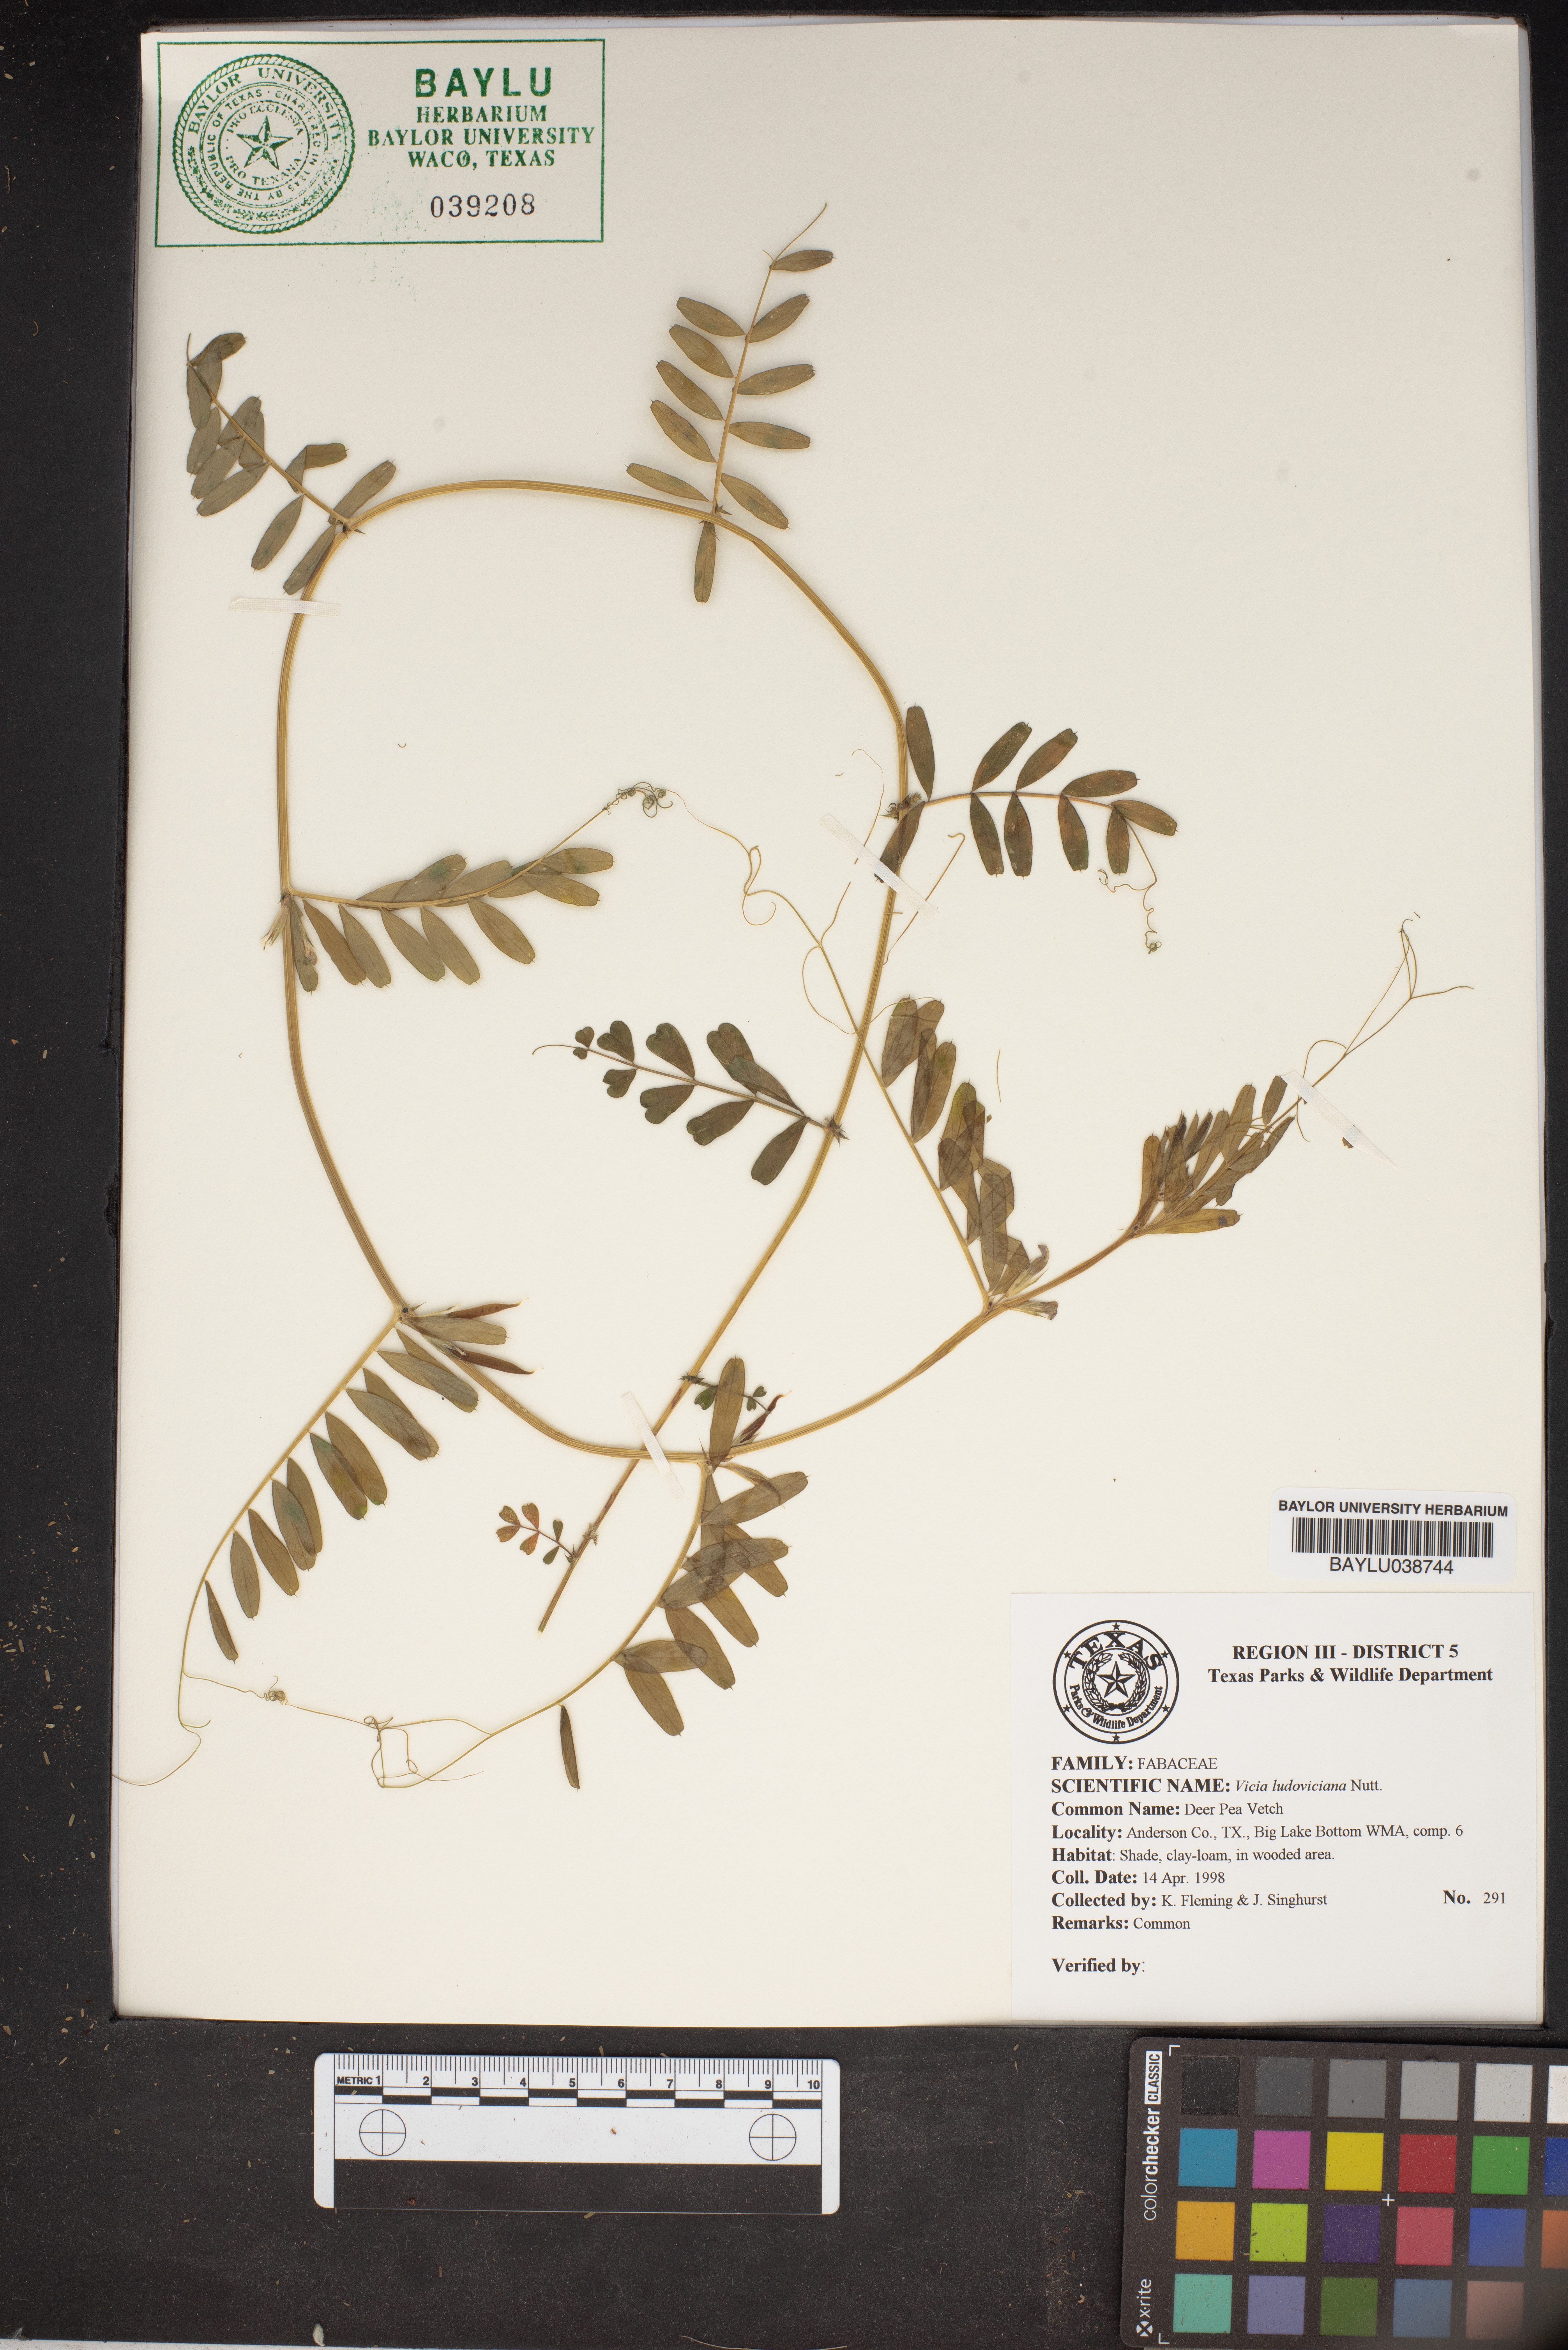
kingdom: Plantae
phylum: Tracheophyta
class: Magnoliopsida
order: Fabales
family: Fabaceae
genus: Vicia
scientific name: Vicia ludoviciana
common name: Louisiana vetch
